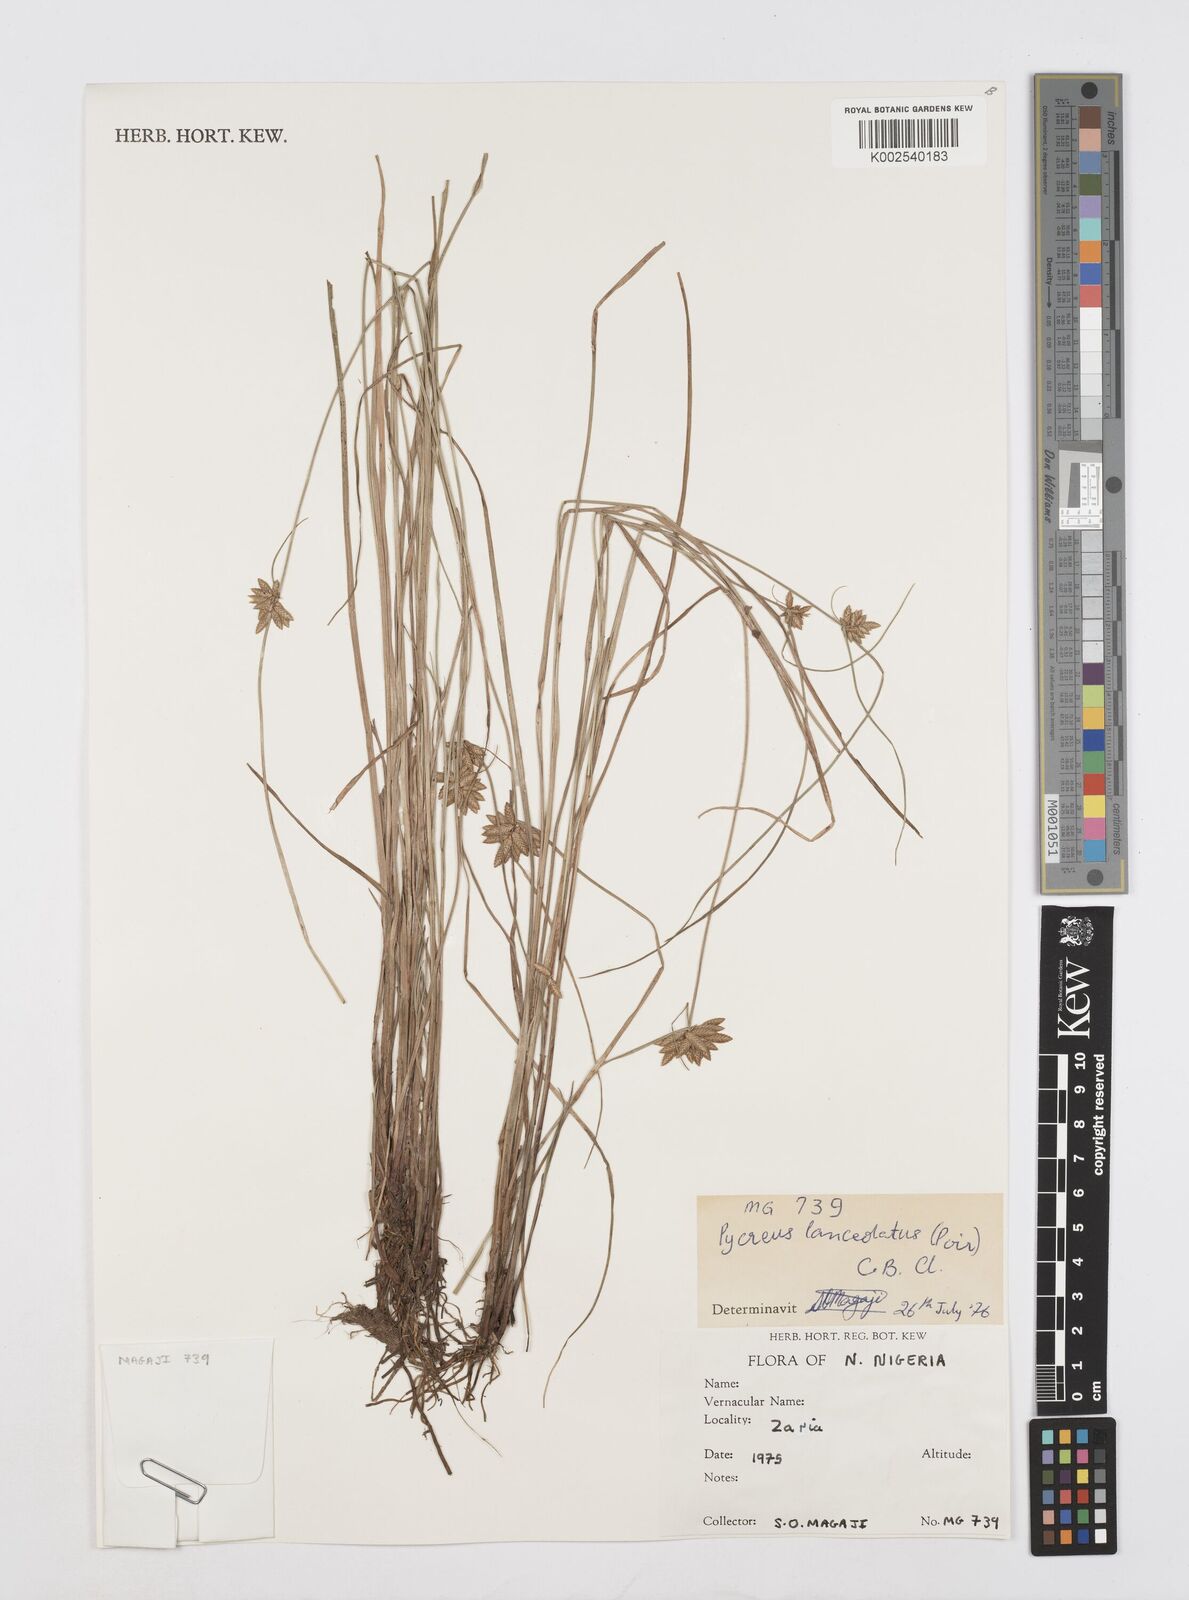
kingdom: Plantae
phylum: Tracheophyta
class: Liliopsida
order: Poales
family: Cyperaceae
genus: Cyperus
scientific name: Cyperus
